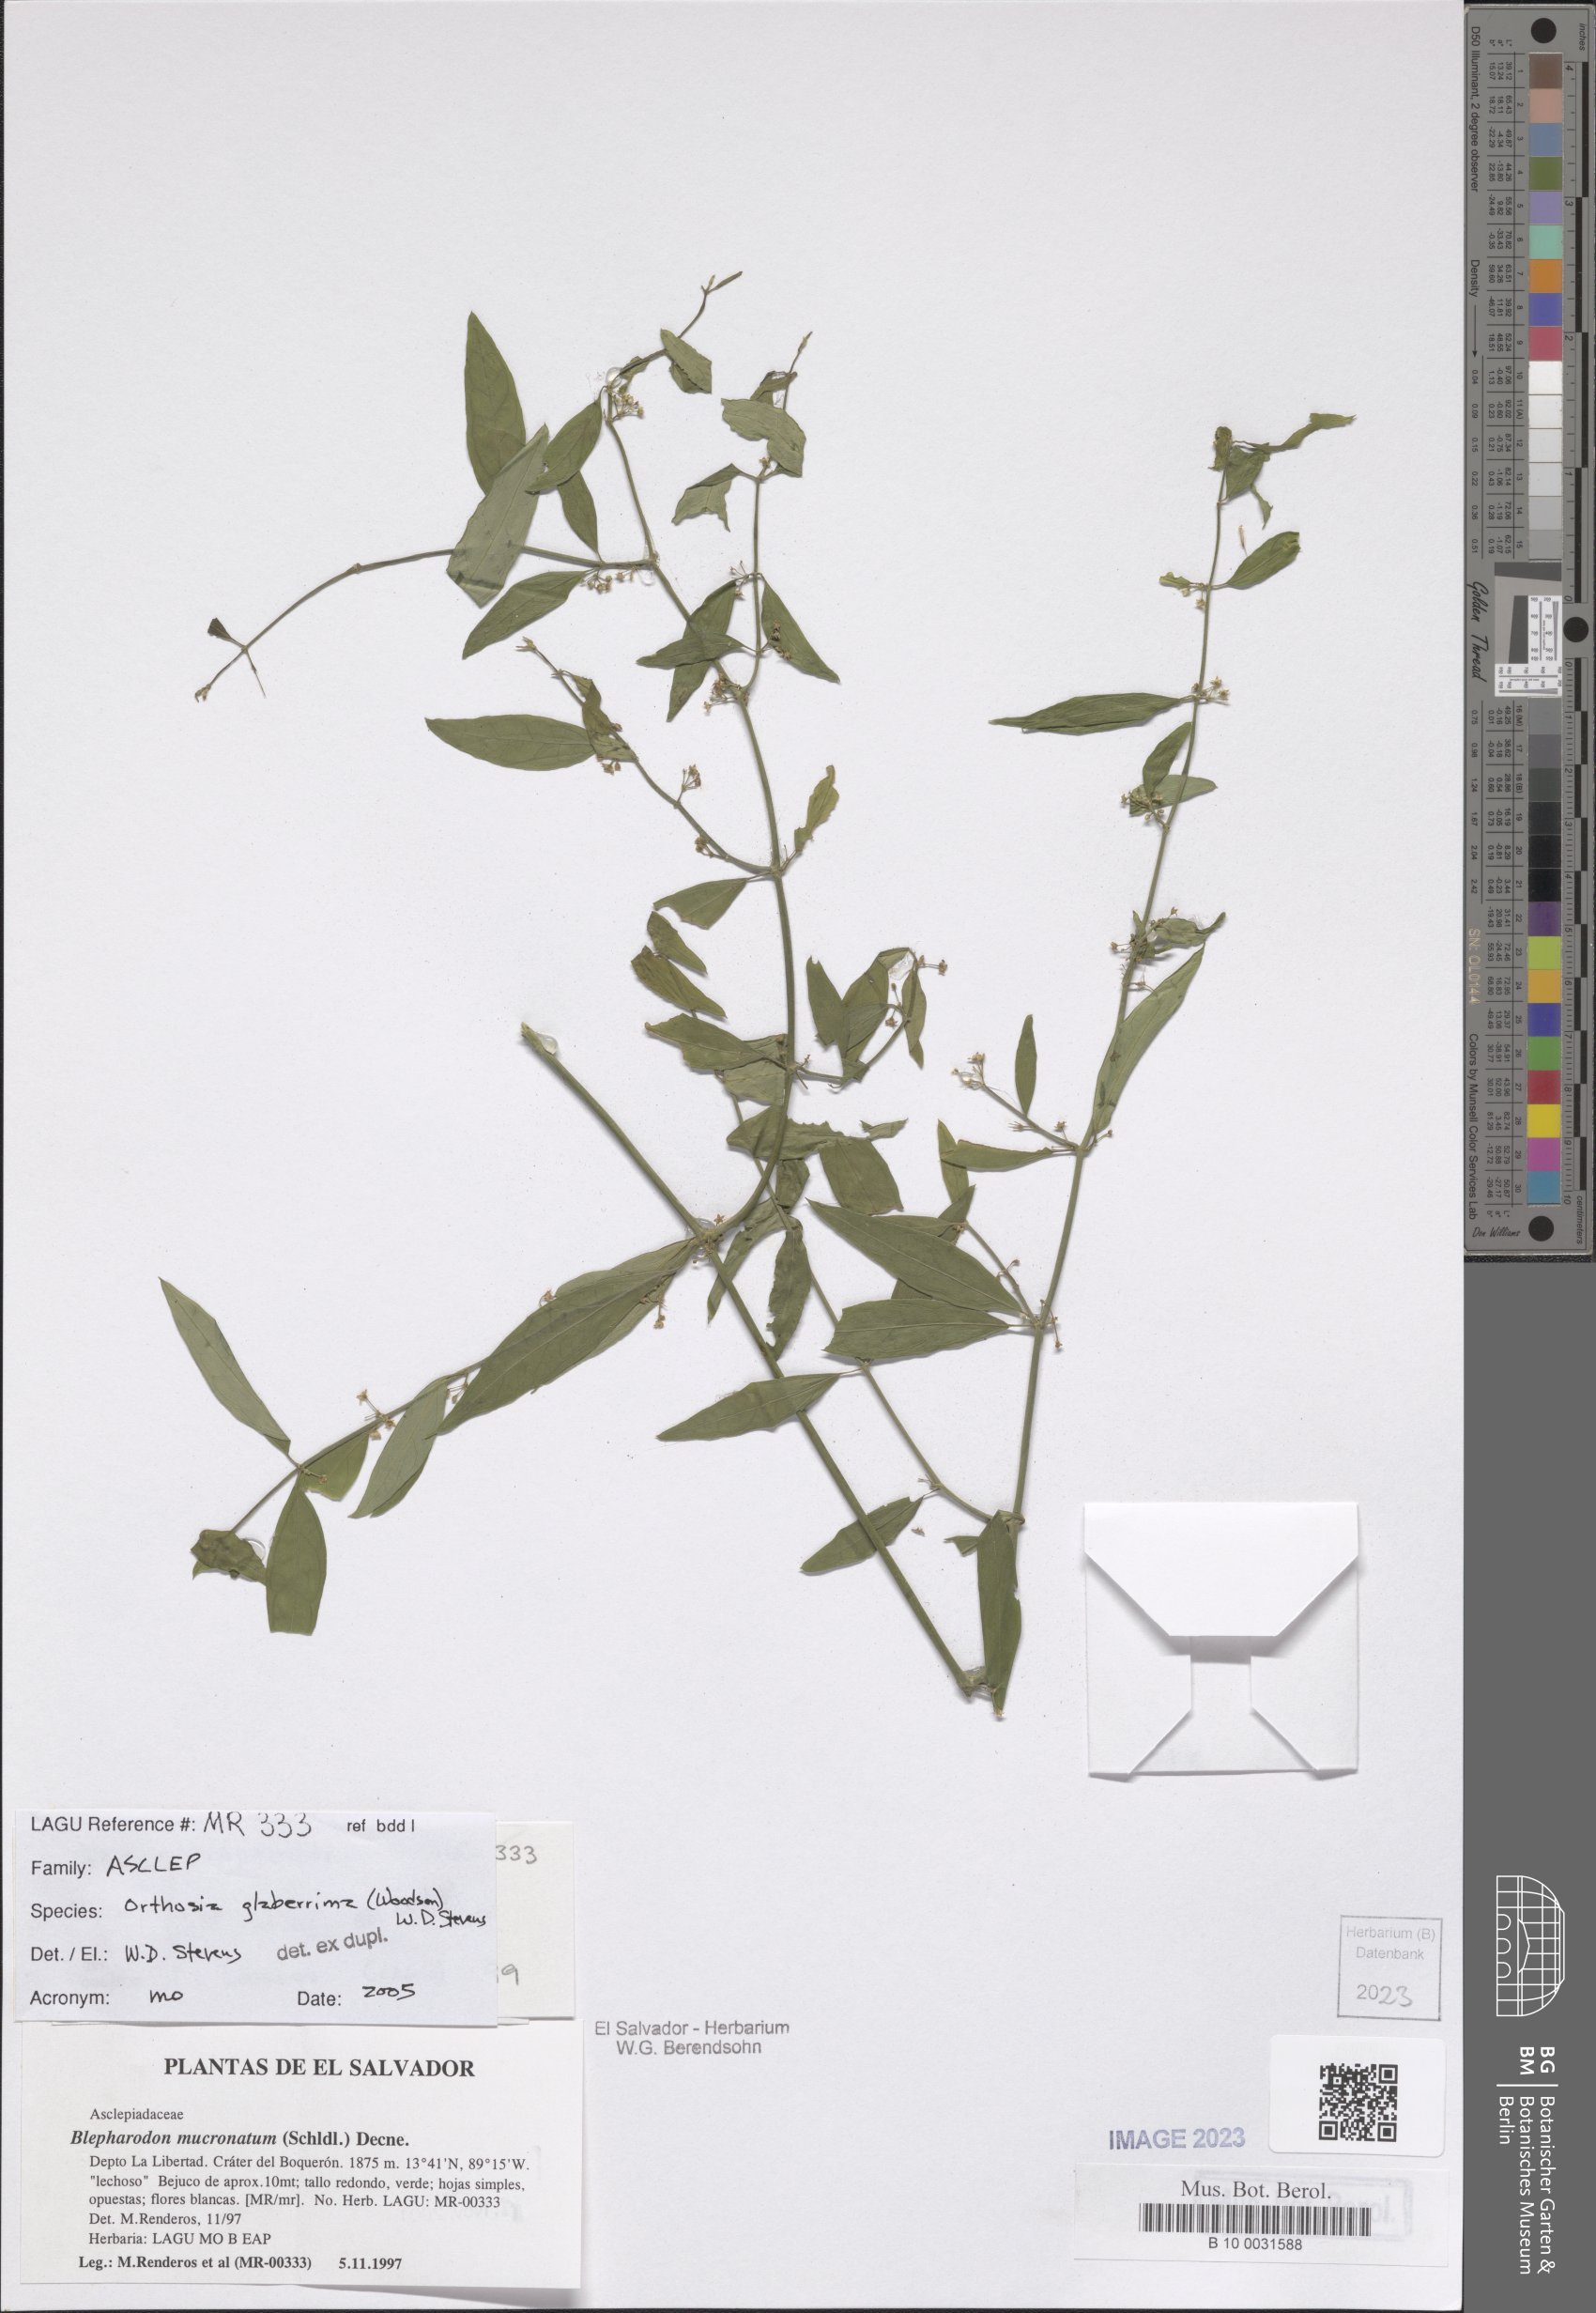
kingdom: Plantae
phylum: Tracheophyta
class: Magnoliopsida
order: Gentianales
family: Apocynaceae
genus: Orthosia
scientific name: Orthosia glaberrima
